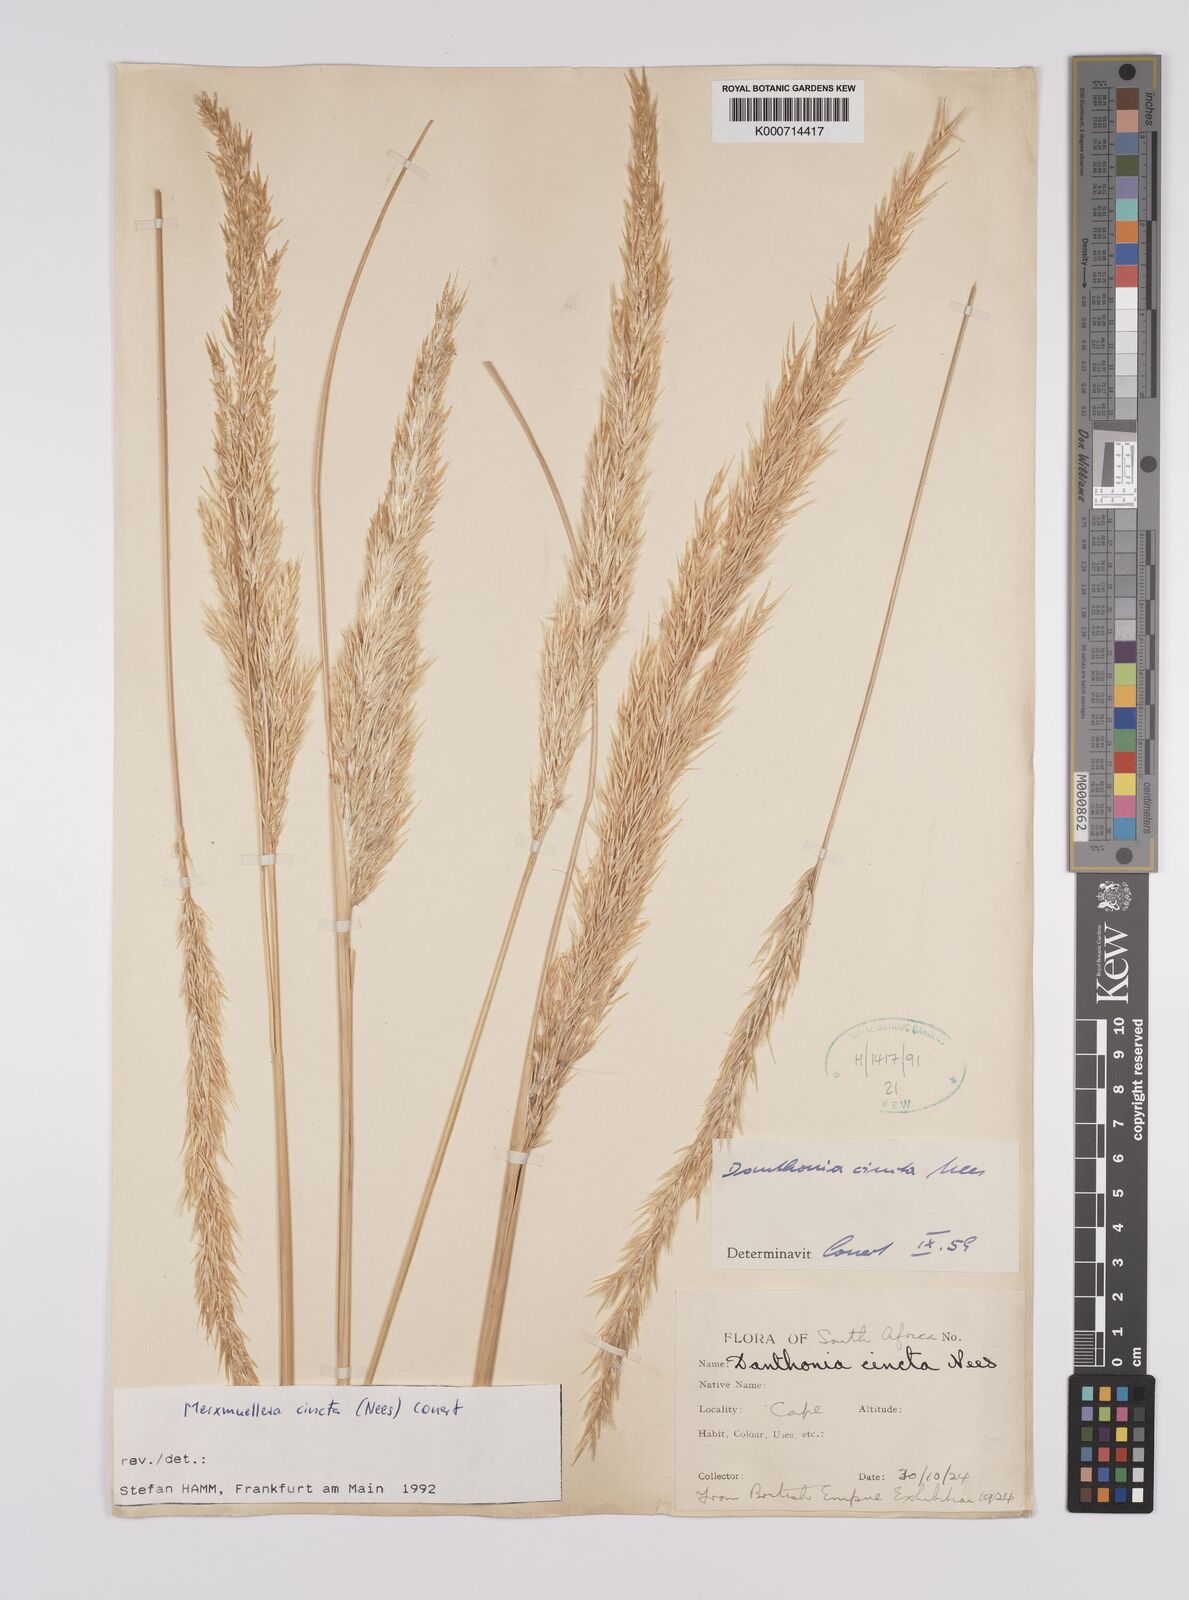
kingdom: Plantae
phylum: Tracheophyta
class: Liliopsida
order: Poales
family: Poaceae
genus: Rytidosperma
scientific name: Rytidosperma
